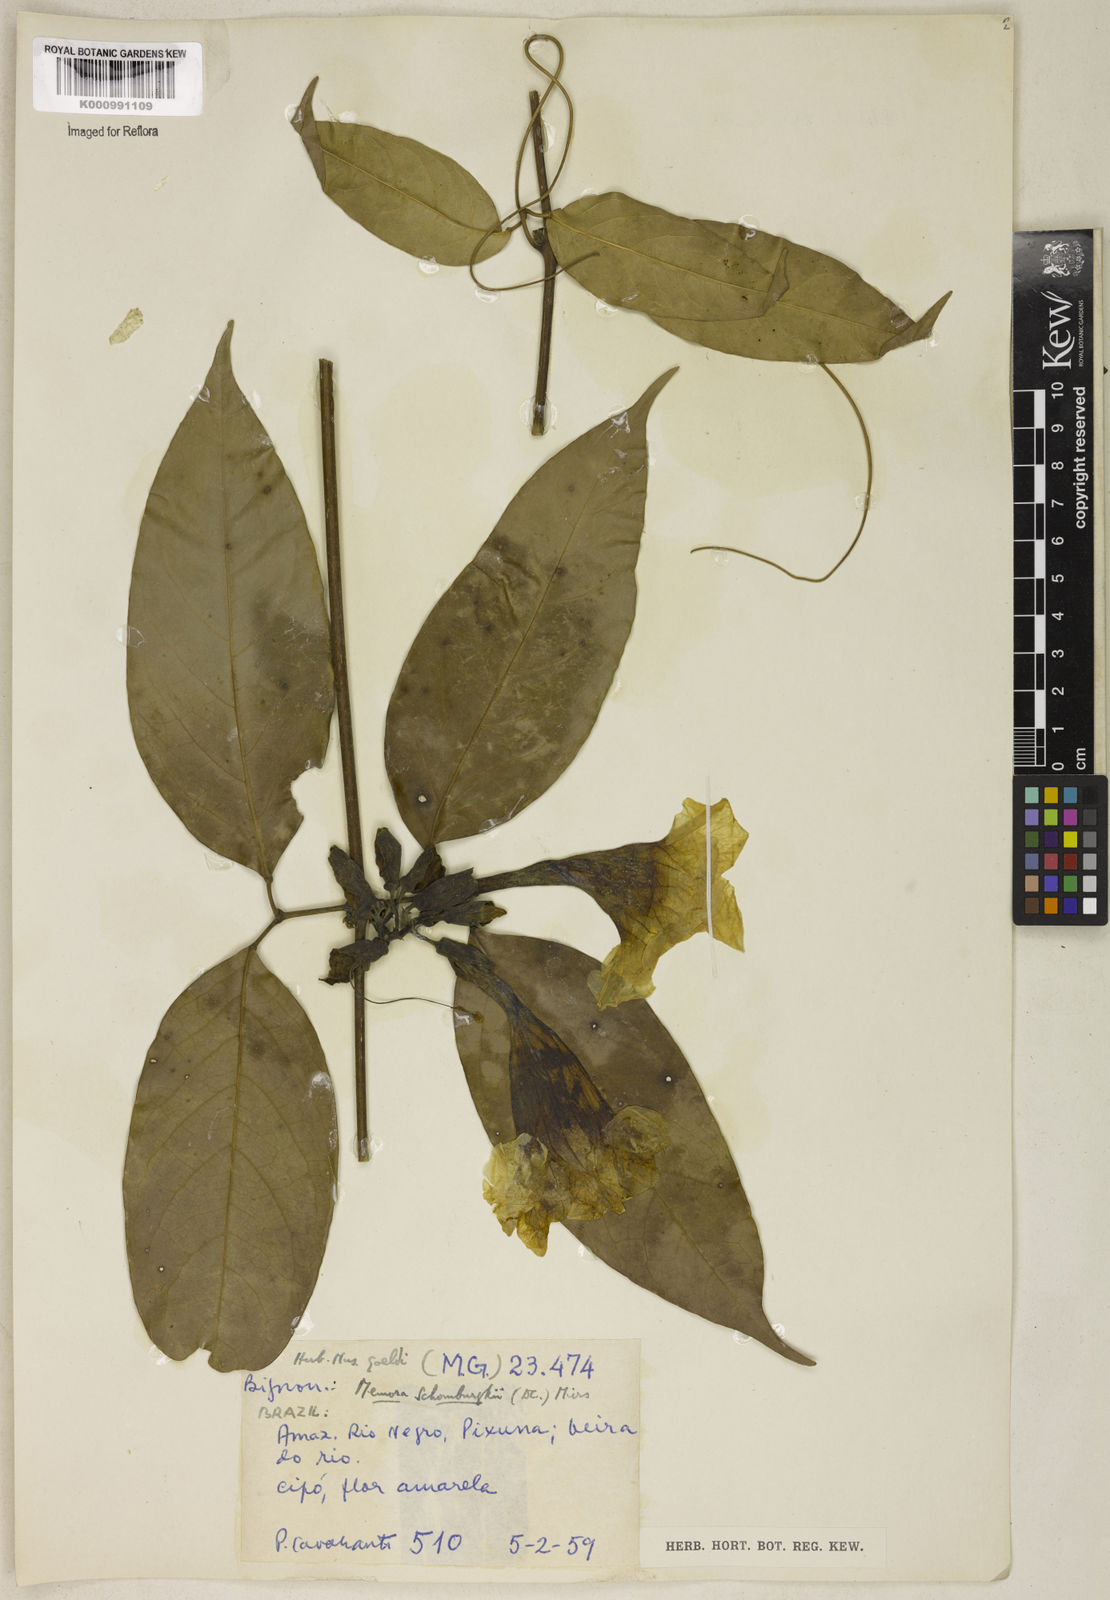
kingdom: Plantae
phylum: Tracheophyta
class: Magnoliopsida
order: Lamiales
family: Bignoniaceae
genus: Adenocalymma
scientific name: Adenocalymma schomburgkii
